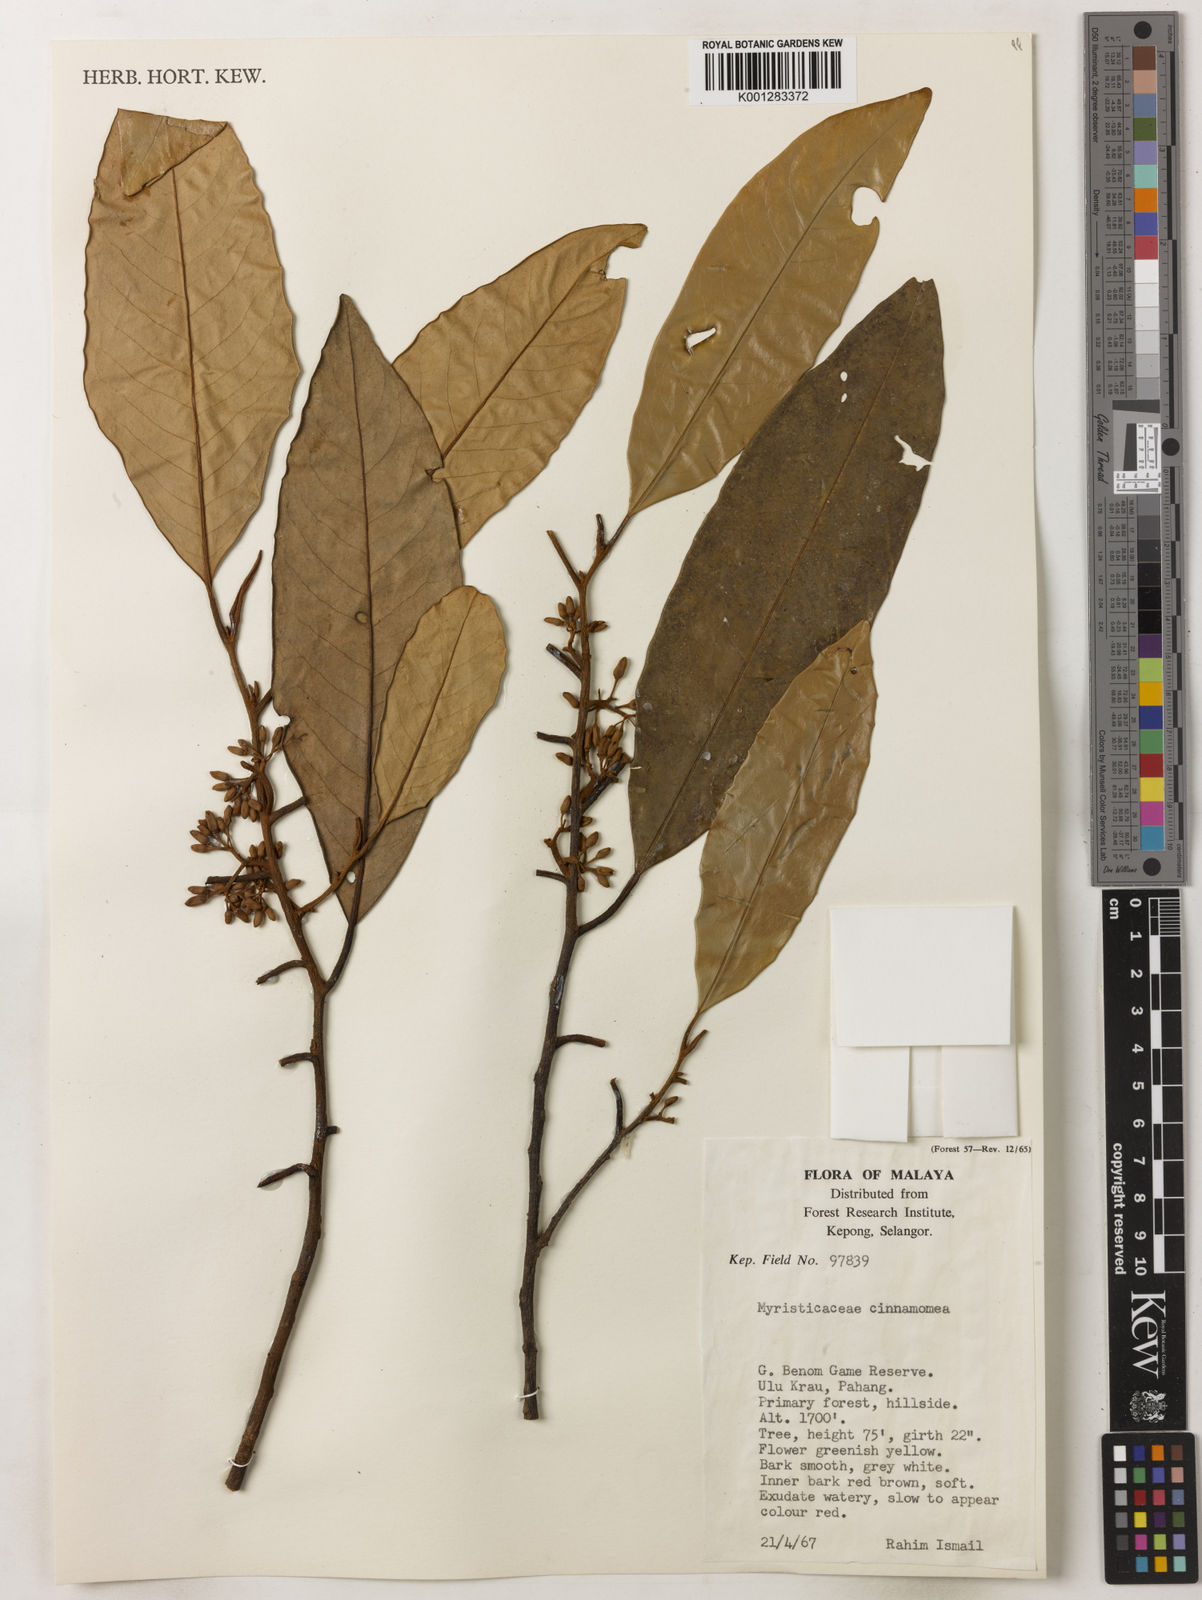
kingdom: Plantae
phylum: Tracheophyta
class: Magnoliopsida
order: Magnoliales
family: Myristicaceae
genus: Myristica
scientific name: Myristica cinnamomea
